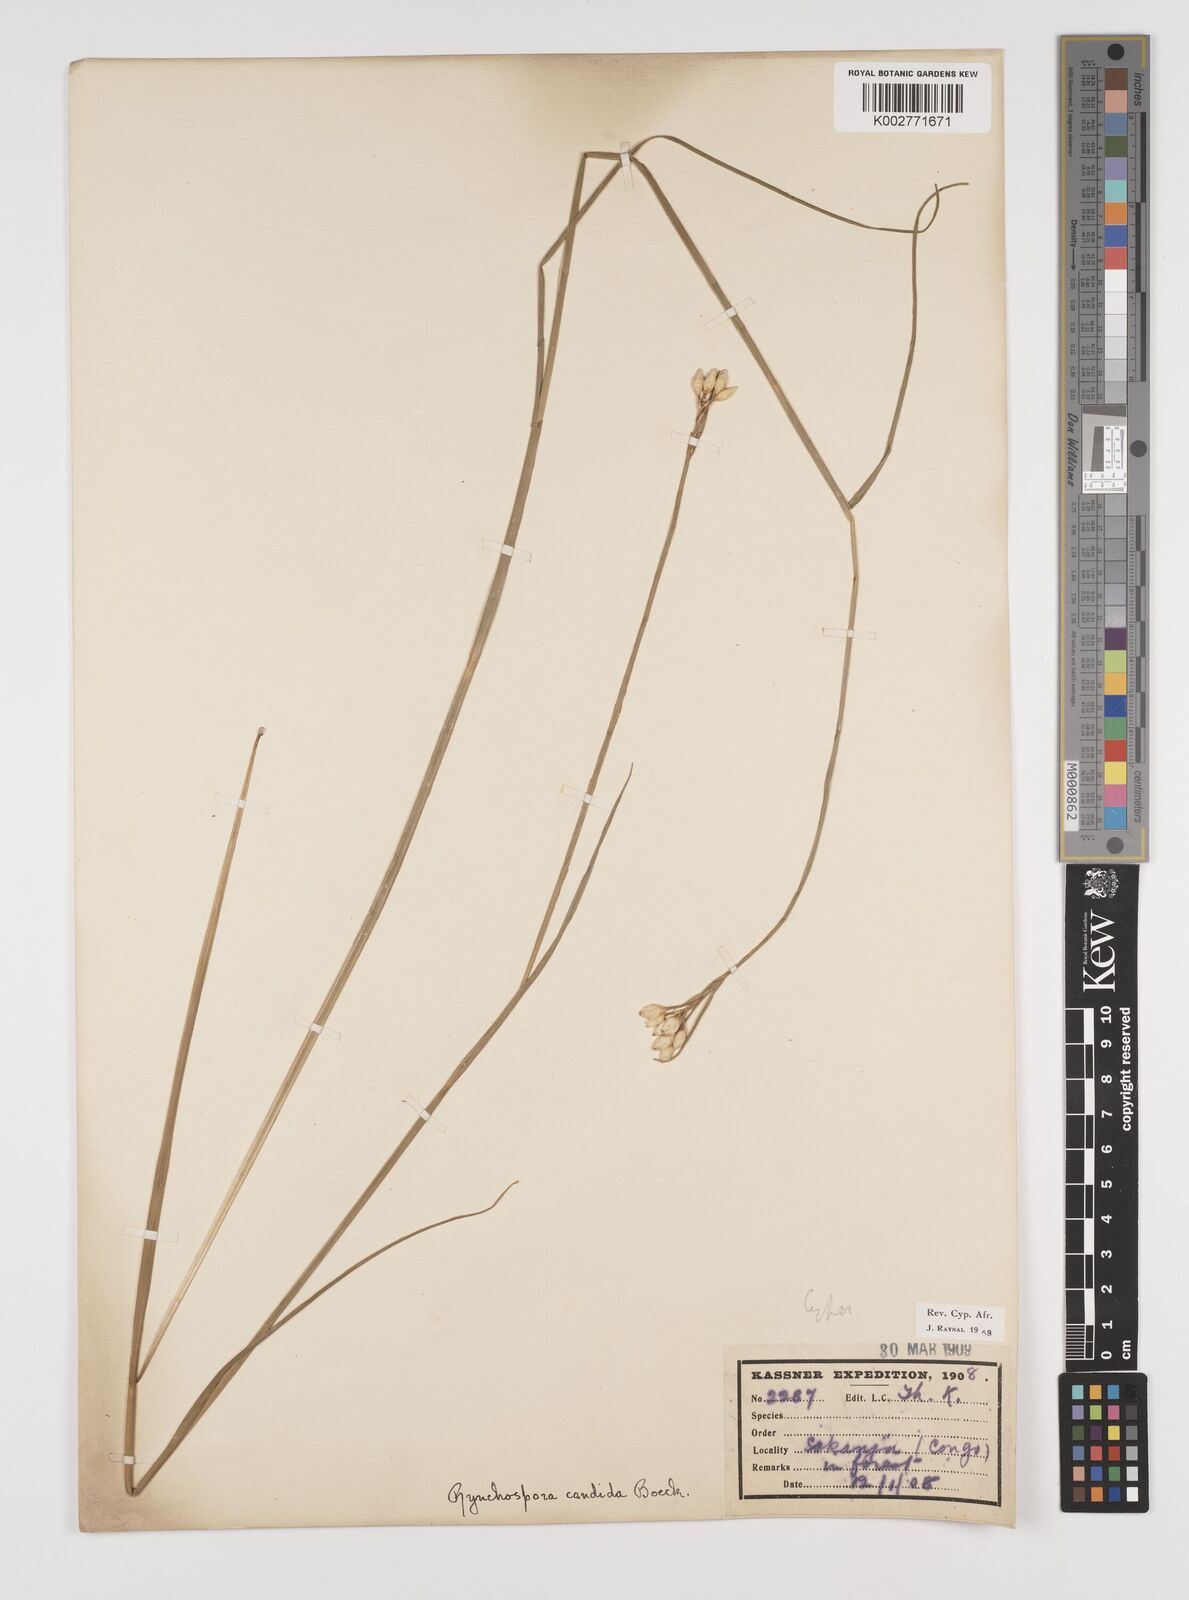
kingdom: Plantae
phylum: Tracheophyta
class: Liliopsida
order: Poales
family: Cyperaceae
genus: Rhynchospora
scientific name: Rhynchospora candida
